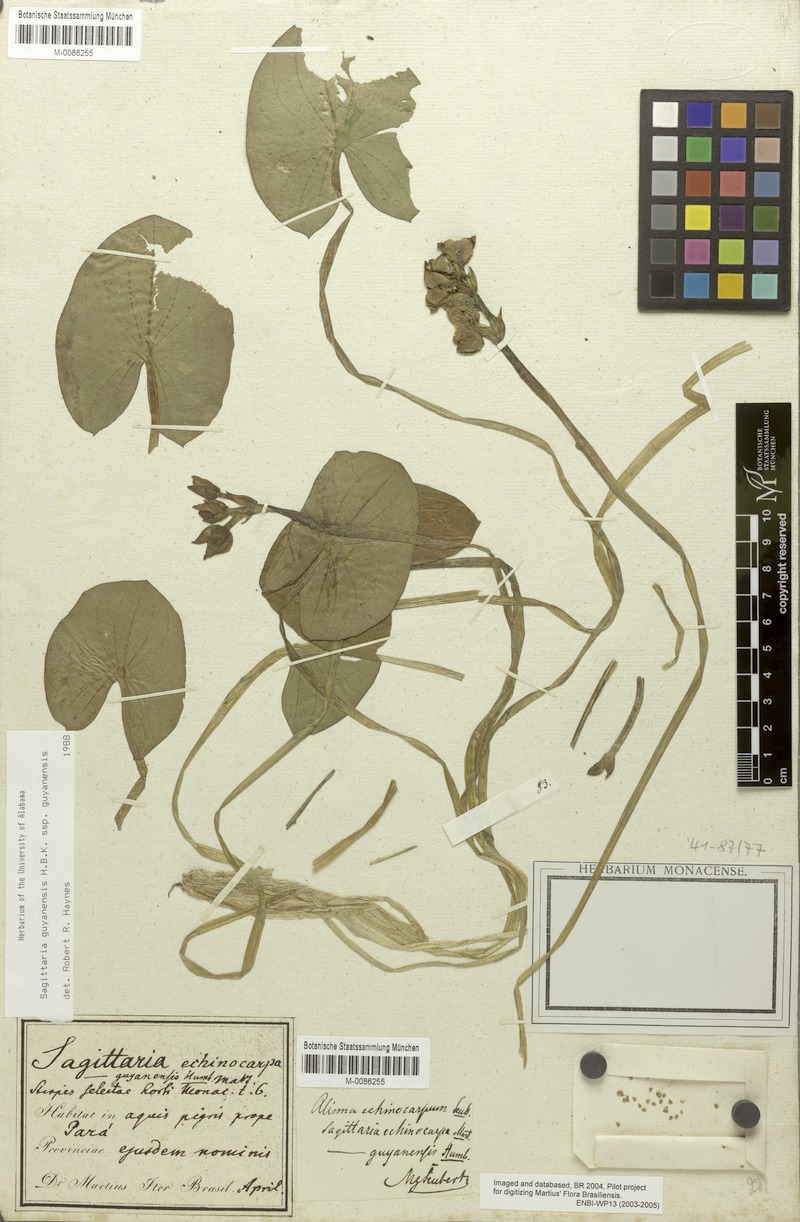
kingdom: Plantae
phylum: Tracheophyta
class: Liliopsida
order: Alismatales
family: Alismataceae
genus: Sagittaria
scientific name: Sagittaria guayanensis
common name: Guyanese arrowhead
